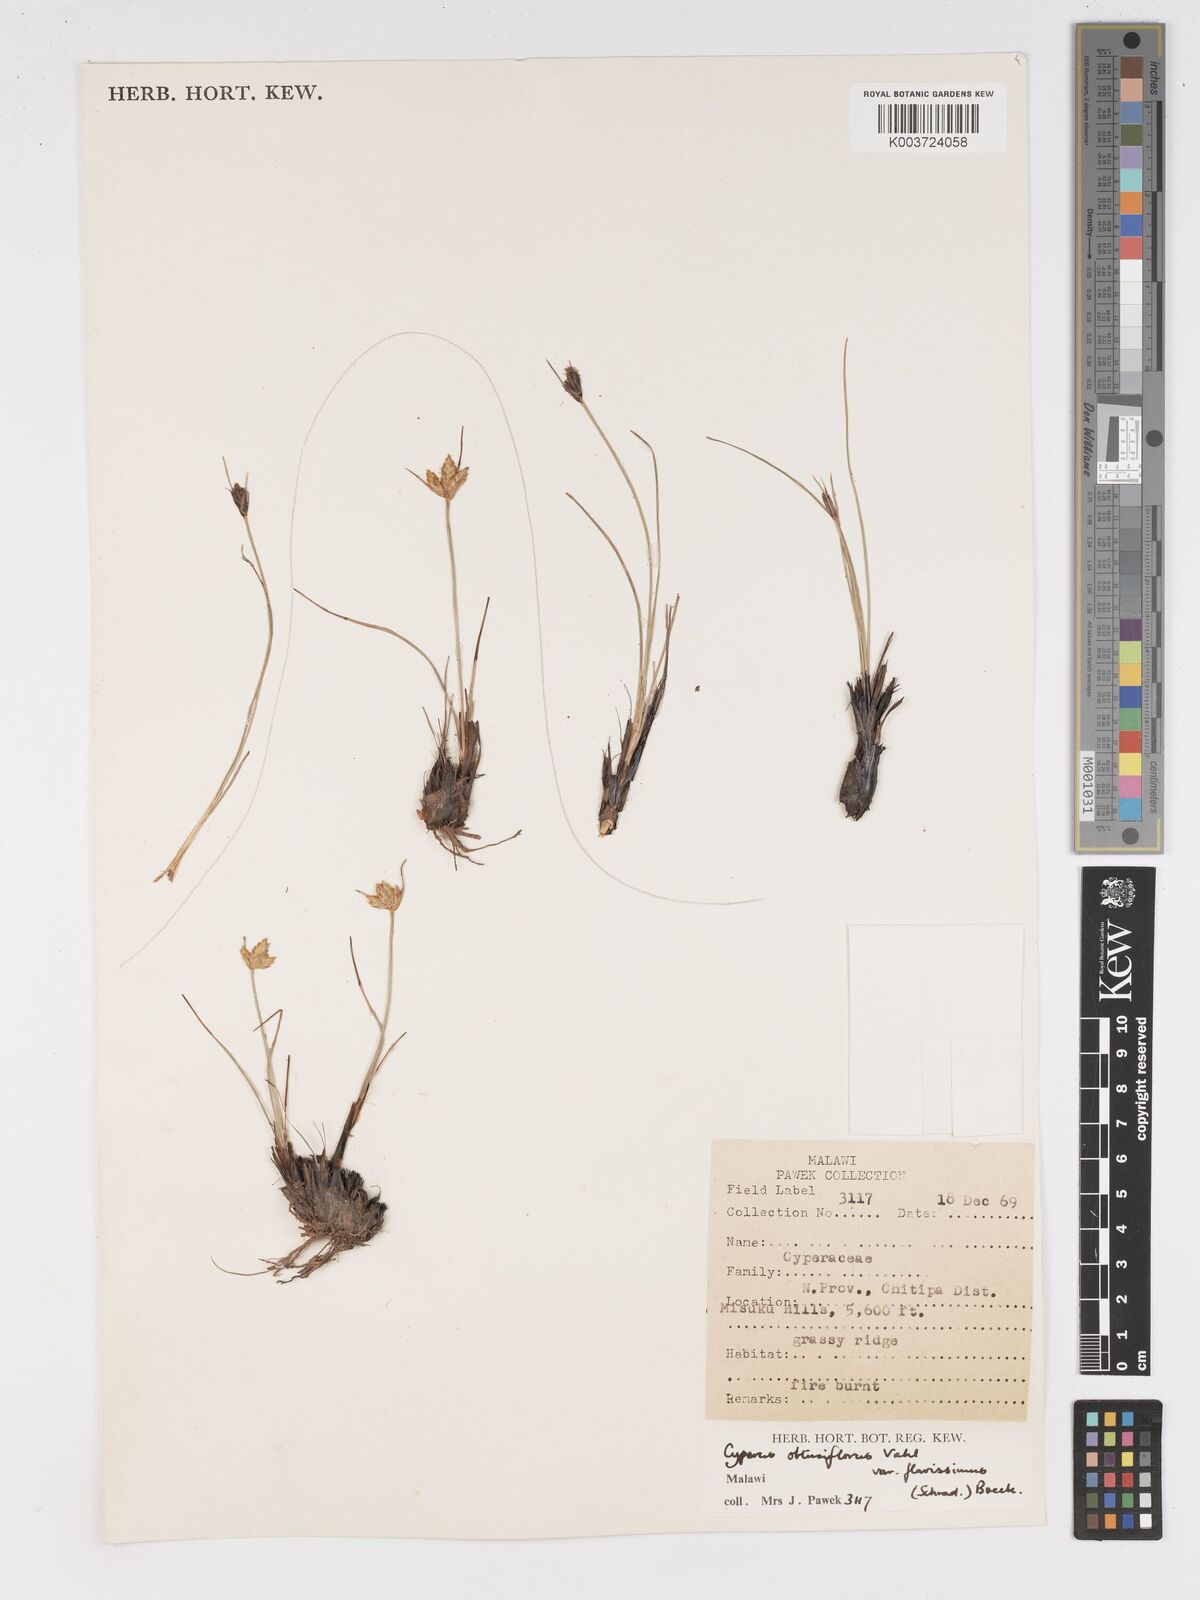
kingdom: Plantae
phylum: Tracheophyta
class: Liliopsida
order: Poales
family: Cyperaceae
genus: Cyperus
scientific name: Cyperus niveus
